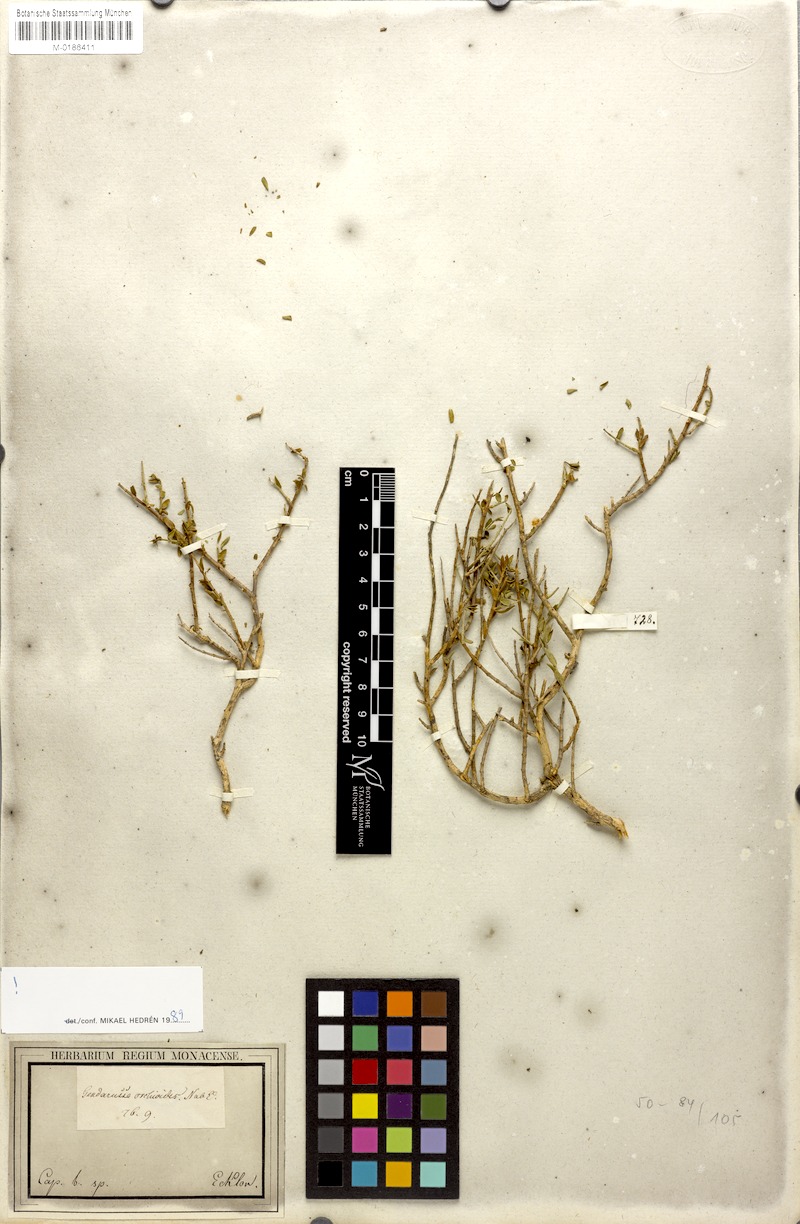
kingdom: Plantae
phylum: Tracheophyta
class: Magnoliopsida
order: Lamiales
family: Acanthaceae
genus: Justicia
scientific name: Justicia orchioides
